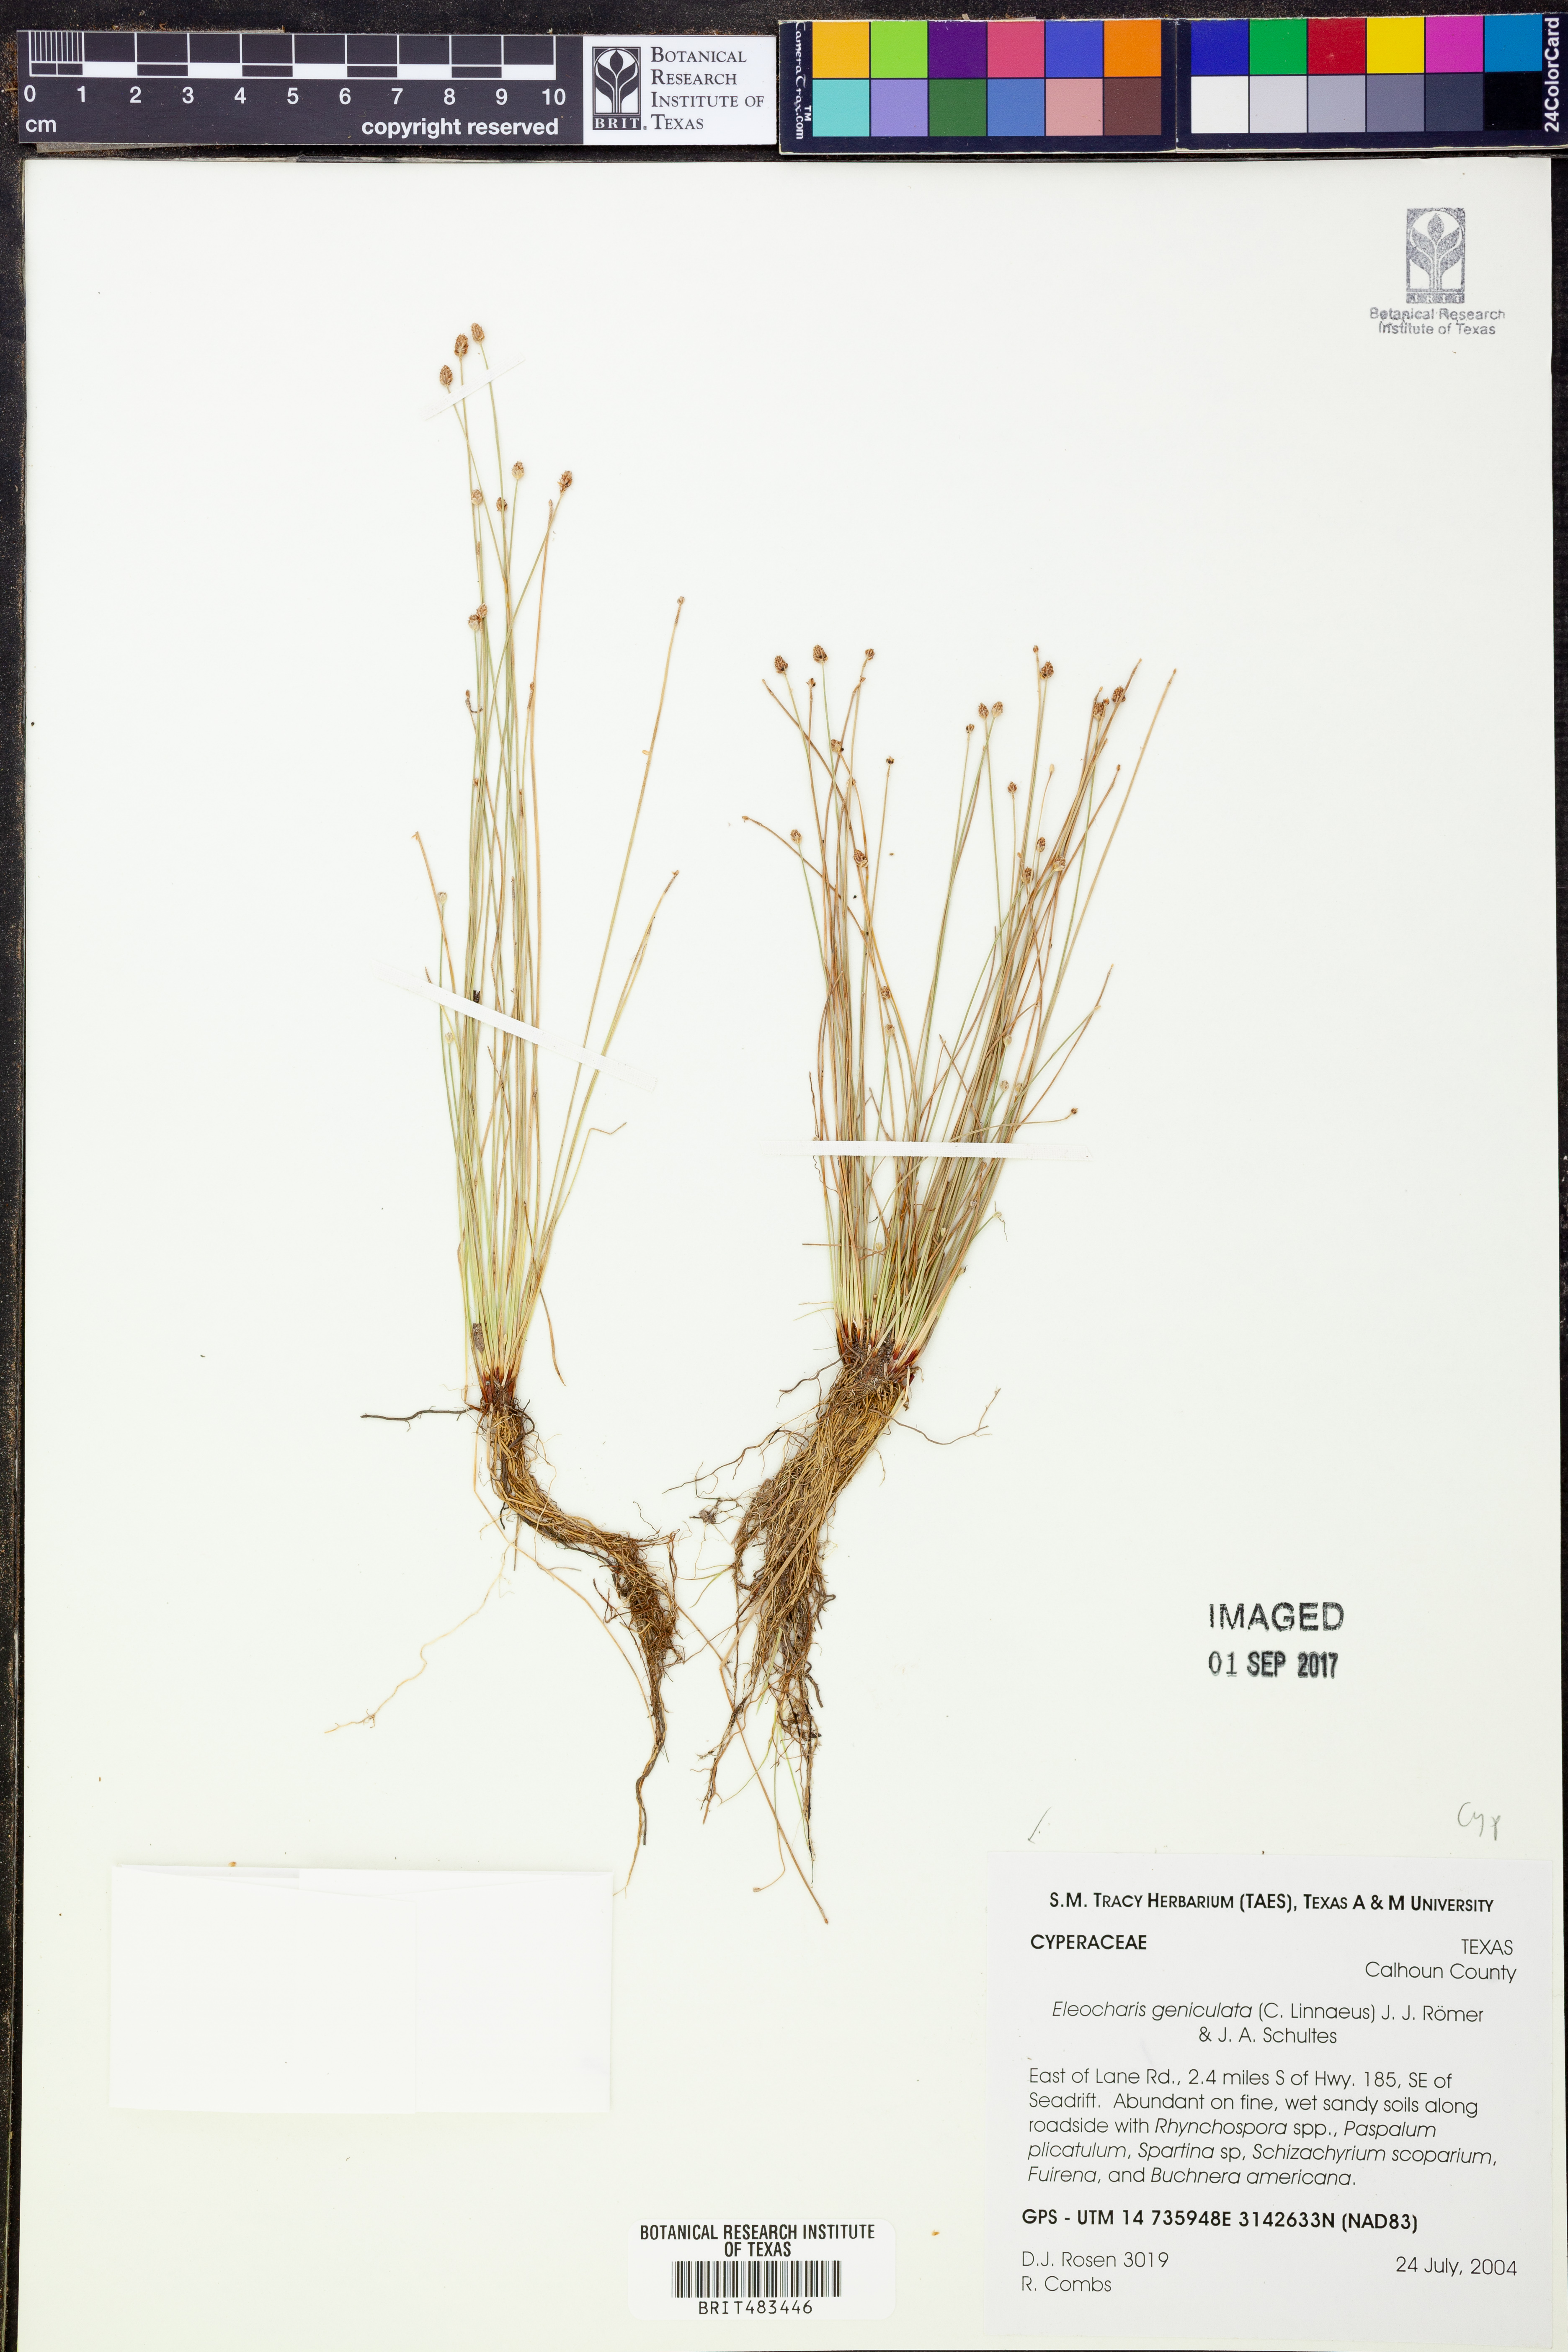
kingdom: Plantae
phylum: Tracheophyta
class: Liliopsida
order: Poales
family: Cyperaceae
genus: Eleocharis
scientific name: Eleocharis geniculata
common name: Canada spikesedge
